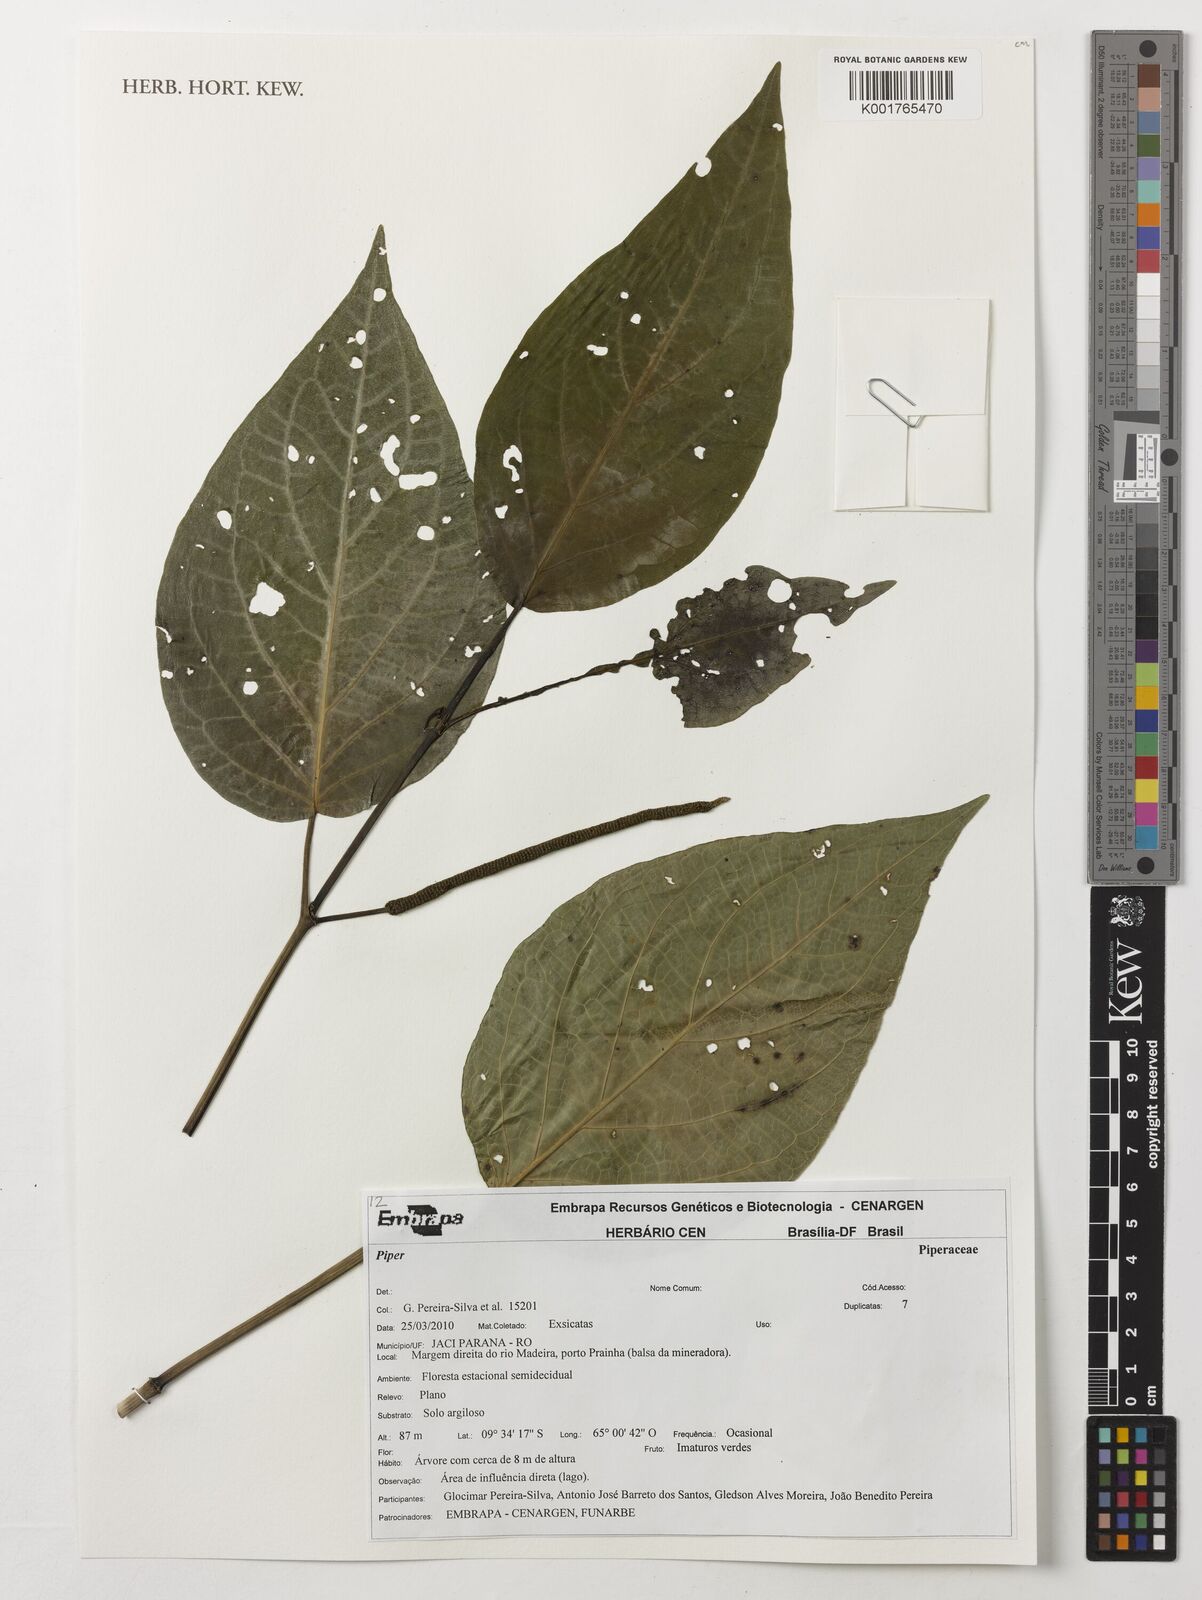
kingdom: Plantae
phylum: Tracheophyta
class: Magnoliopsida
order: Piperales
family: Piperaceae
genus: Piper
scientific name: Piper
